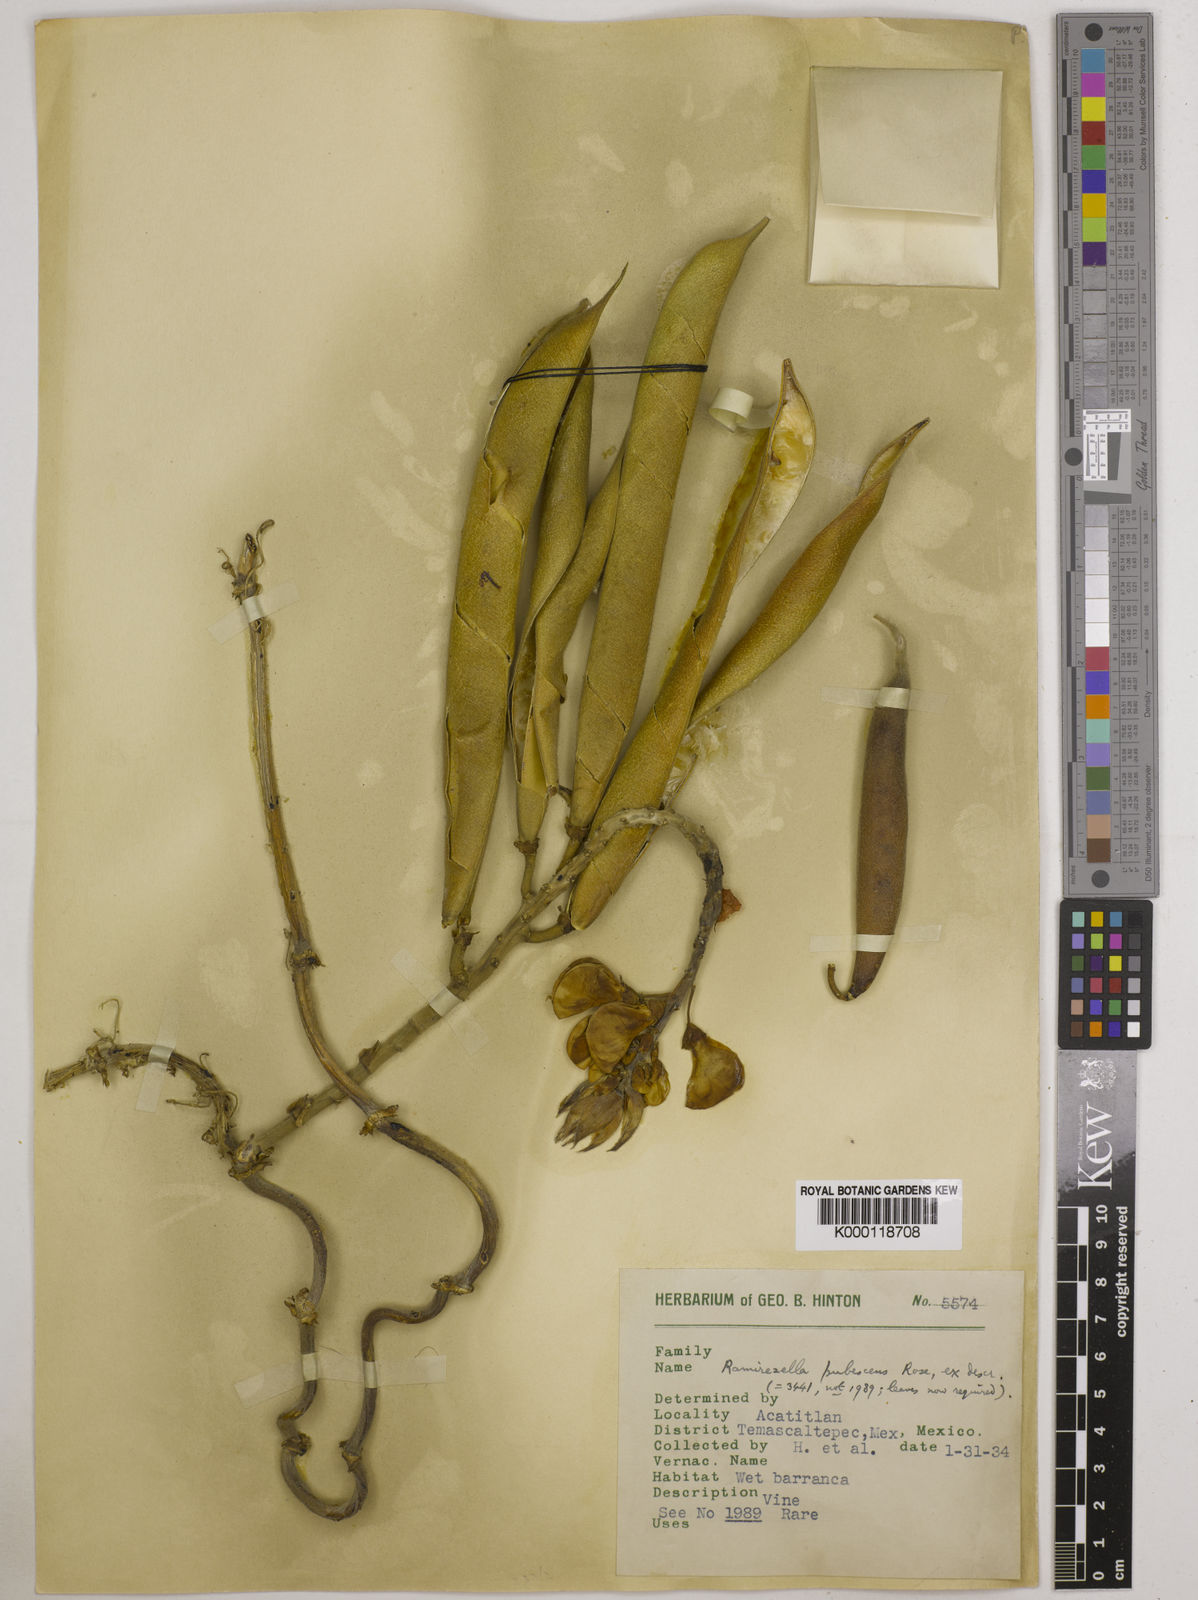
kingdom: Plantae
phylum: Tracheophyta
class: Magnoliopsida
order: Fabales
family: Fabaceae
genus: Ramirezella
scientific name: Ramirezella strobilophora
